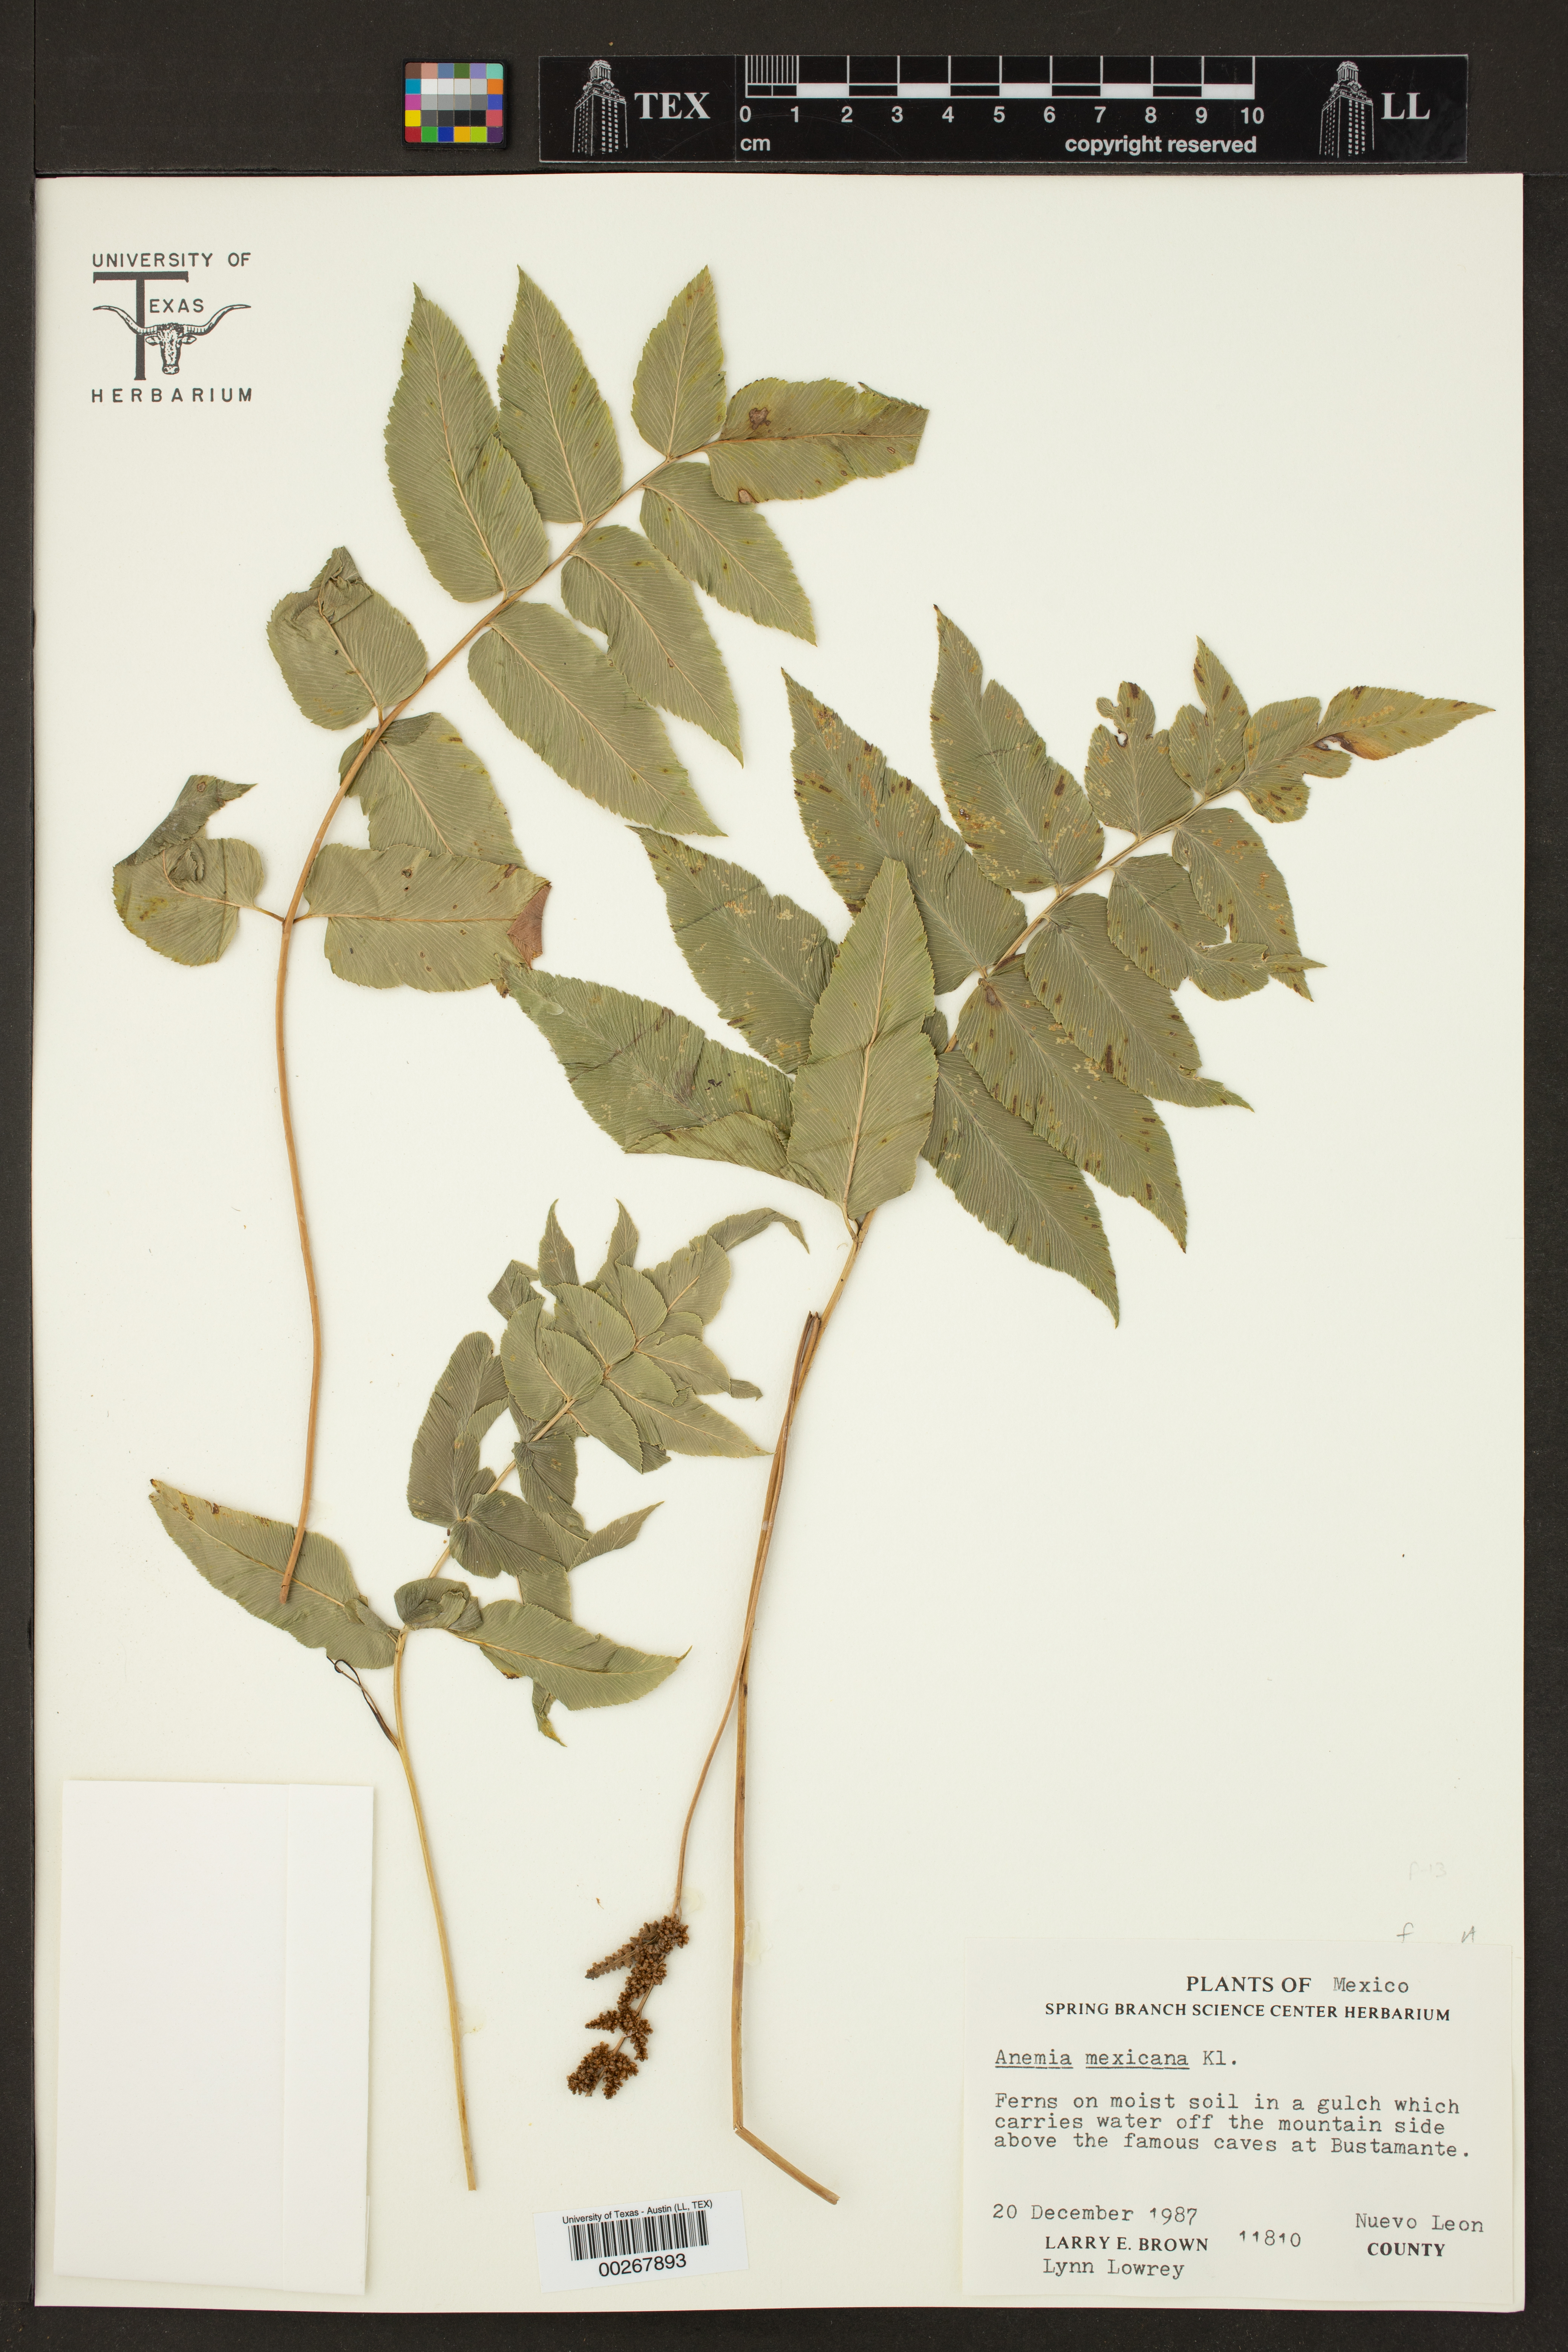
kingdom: Plantae
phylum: Tracheophyta
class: Polypodiopsida
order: Schizaeales
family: Anemiaceae
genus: Anemia
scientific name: Anemia mexicana
